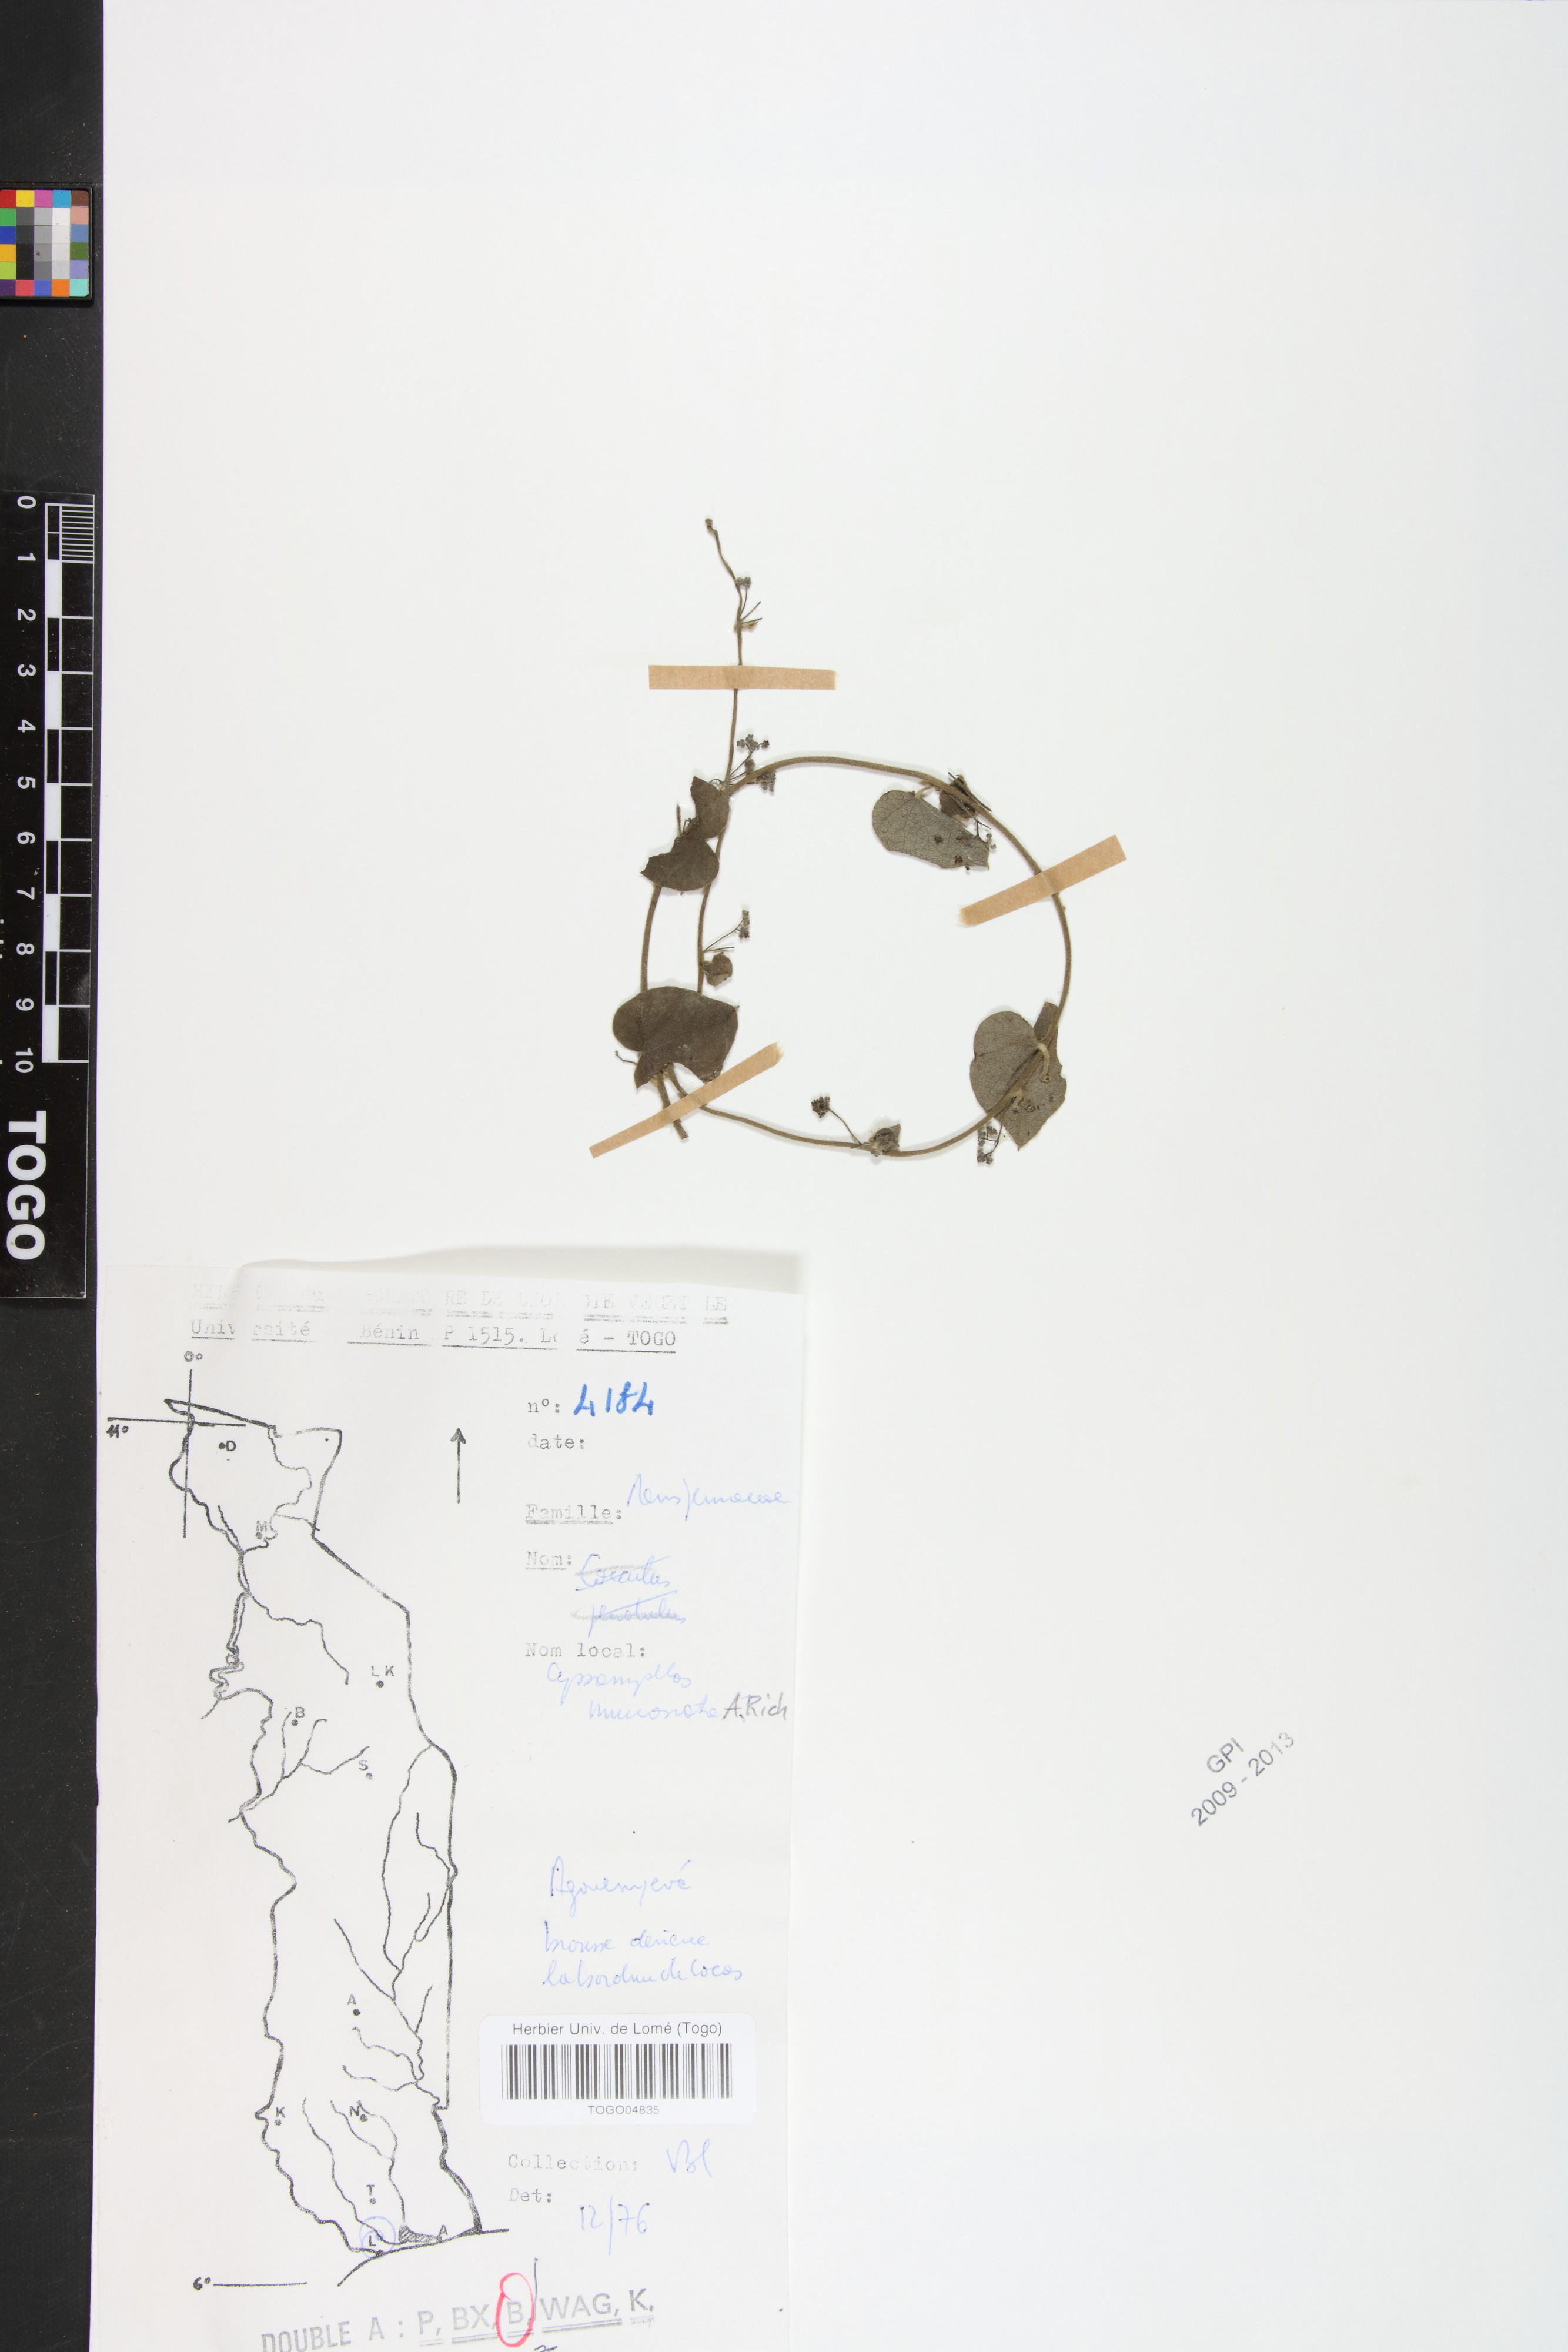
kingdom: Plantae
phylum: Tracheophyta
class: Magnoliopsida
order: Ranunculales
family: Menispermaceae
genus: Cissampelos
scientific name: Cissampelos mucronata
